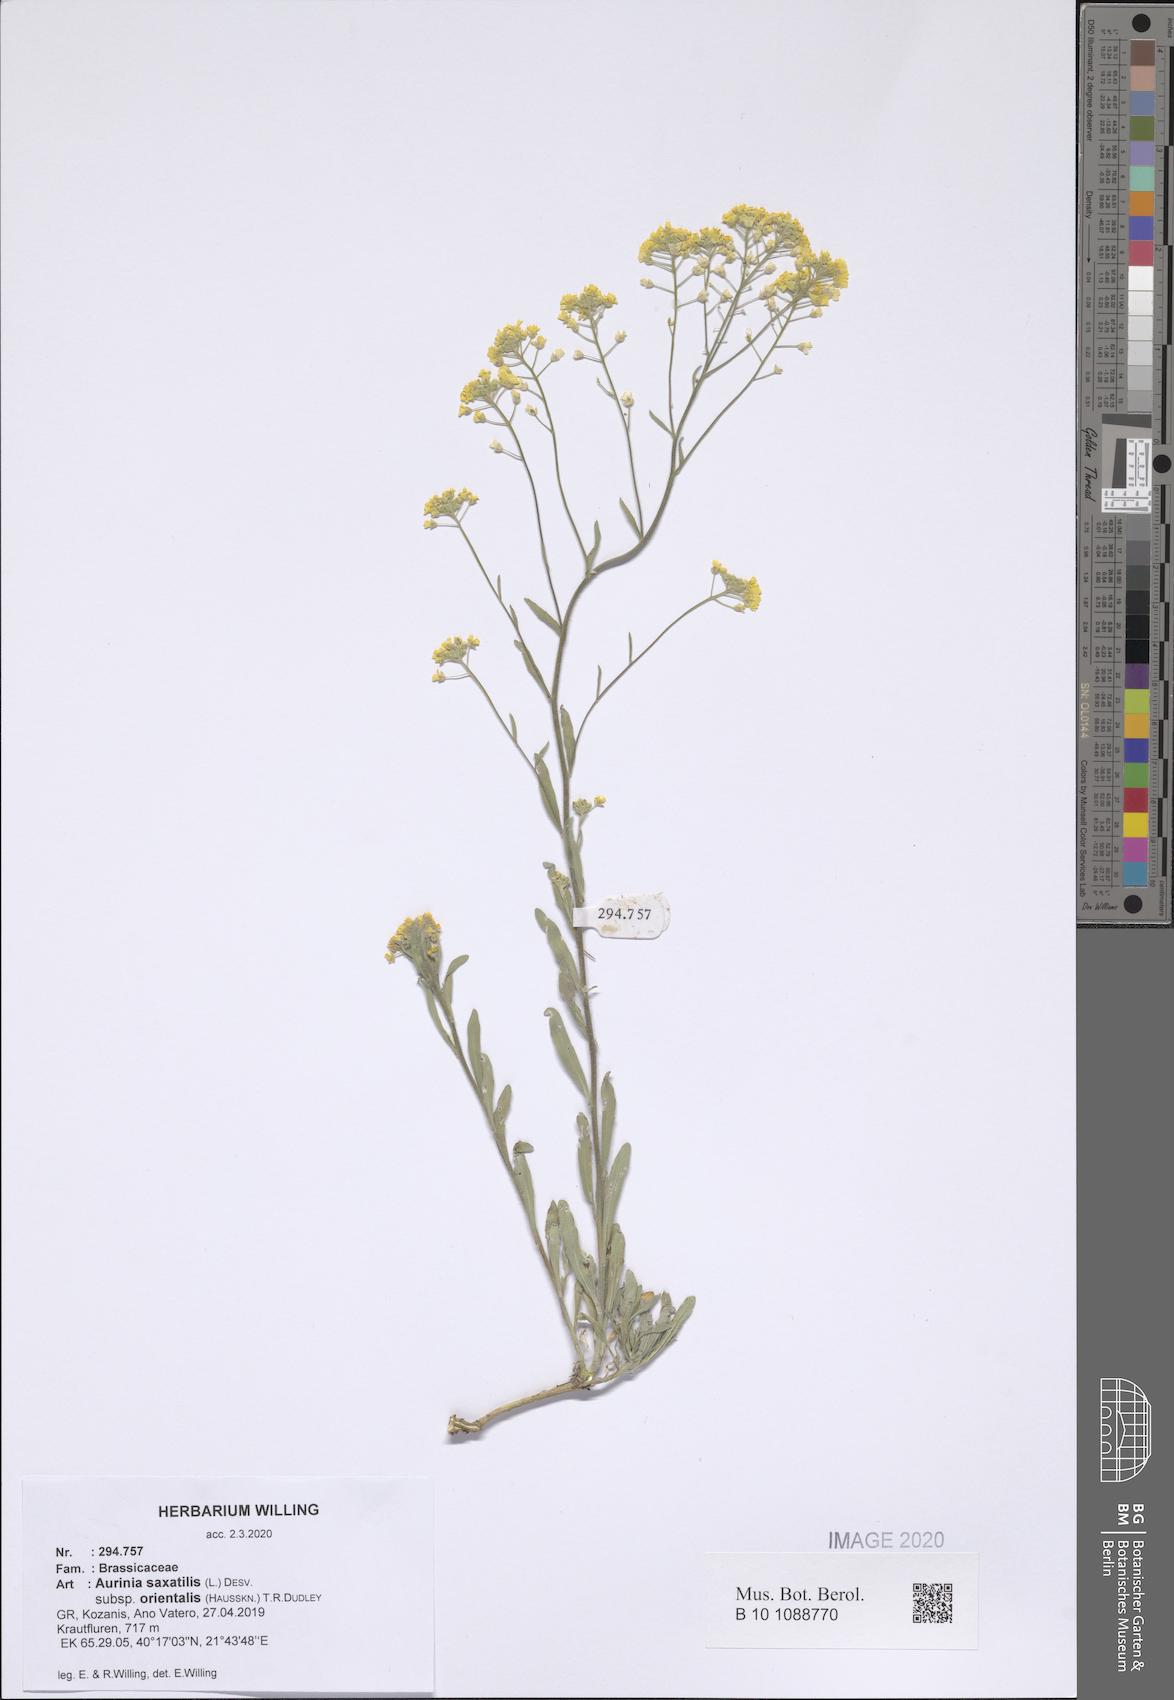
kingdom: Plantae
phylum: Tracheophyta
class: Magnoliopsida
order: Brassicales
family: Brassicaceae
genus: Aurinia
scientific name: Aurinia saxatilis
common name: Golden-tuft alyssum
